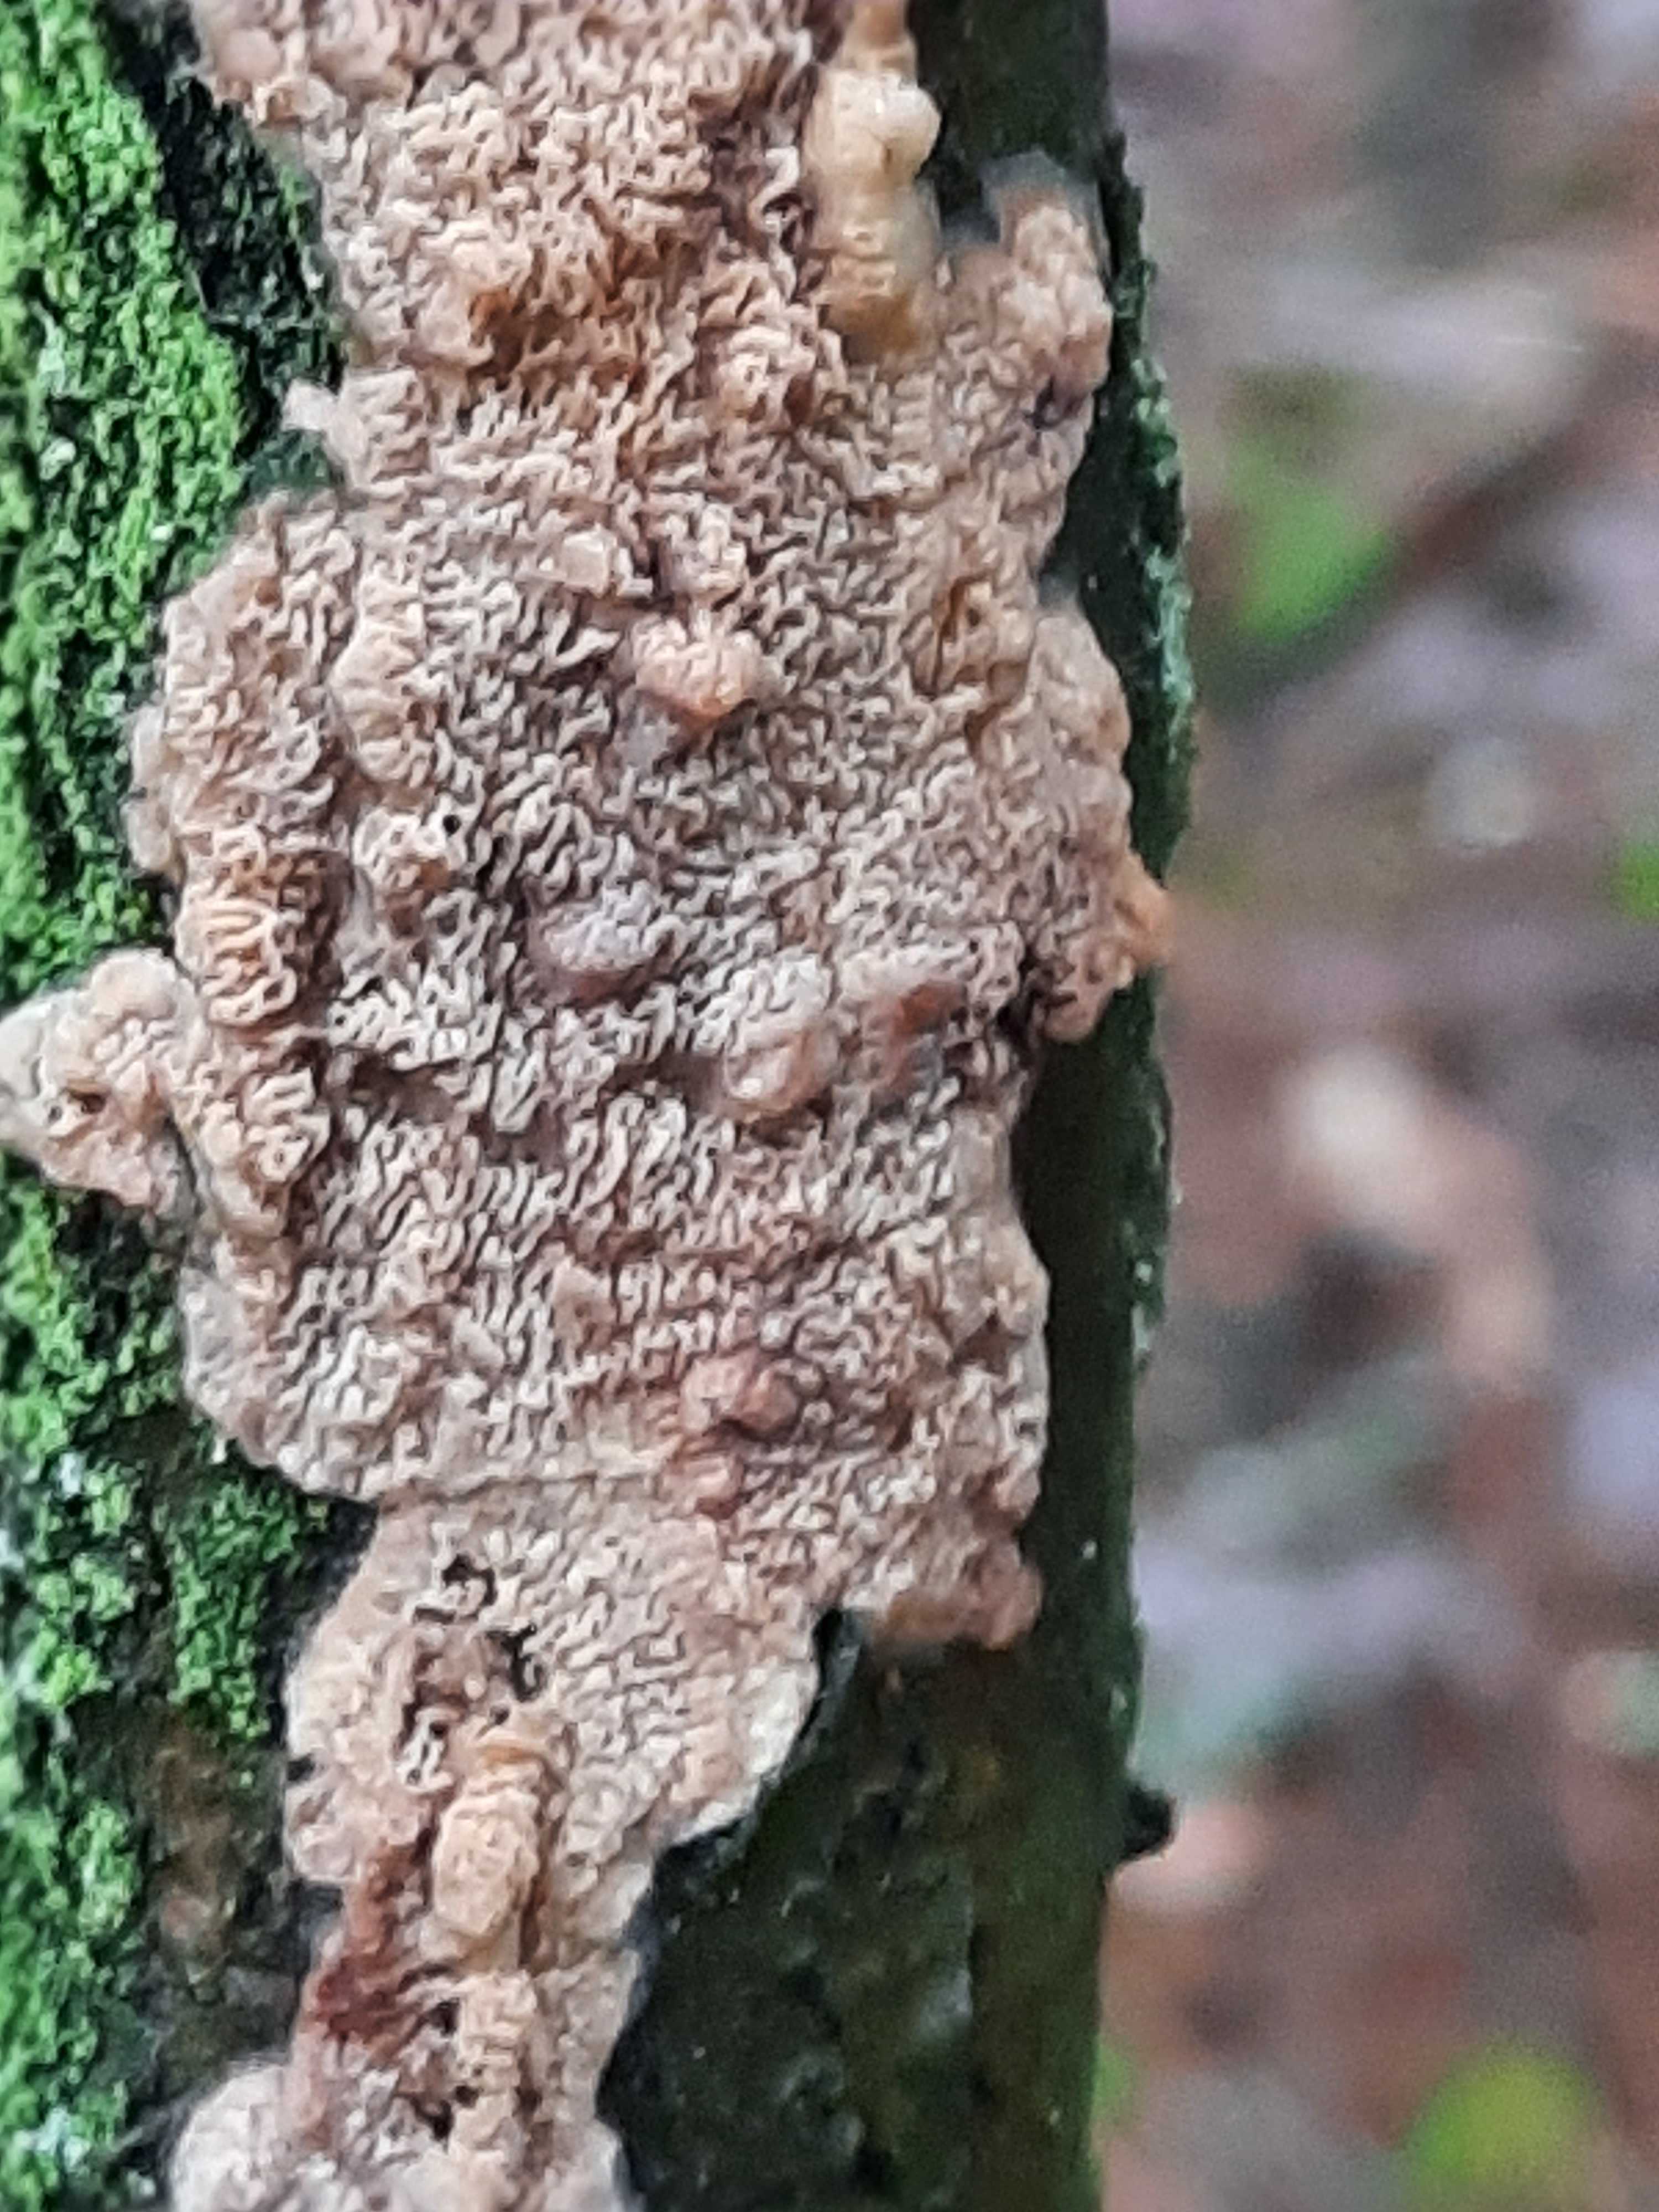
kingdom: Fungi
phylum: Basidiomycota
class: Agaricomycetes
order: Polyporales
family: Meruliaceae
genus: Phlebia
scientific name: Phlebia rufa
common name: ege-åresvamp
